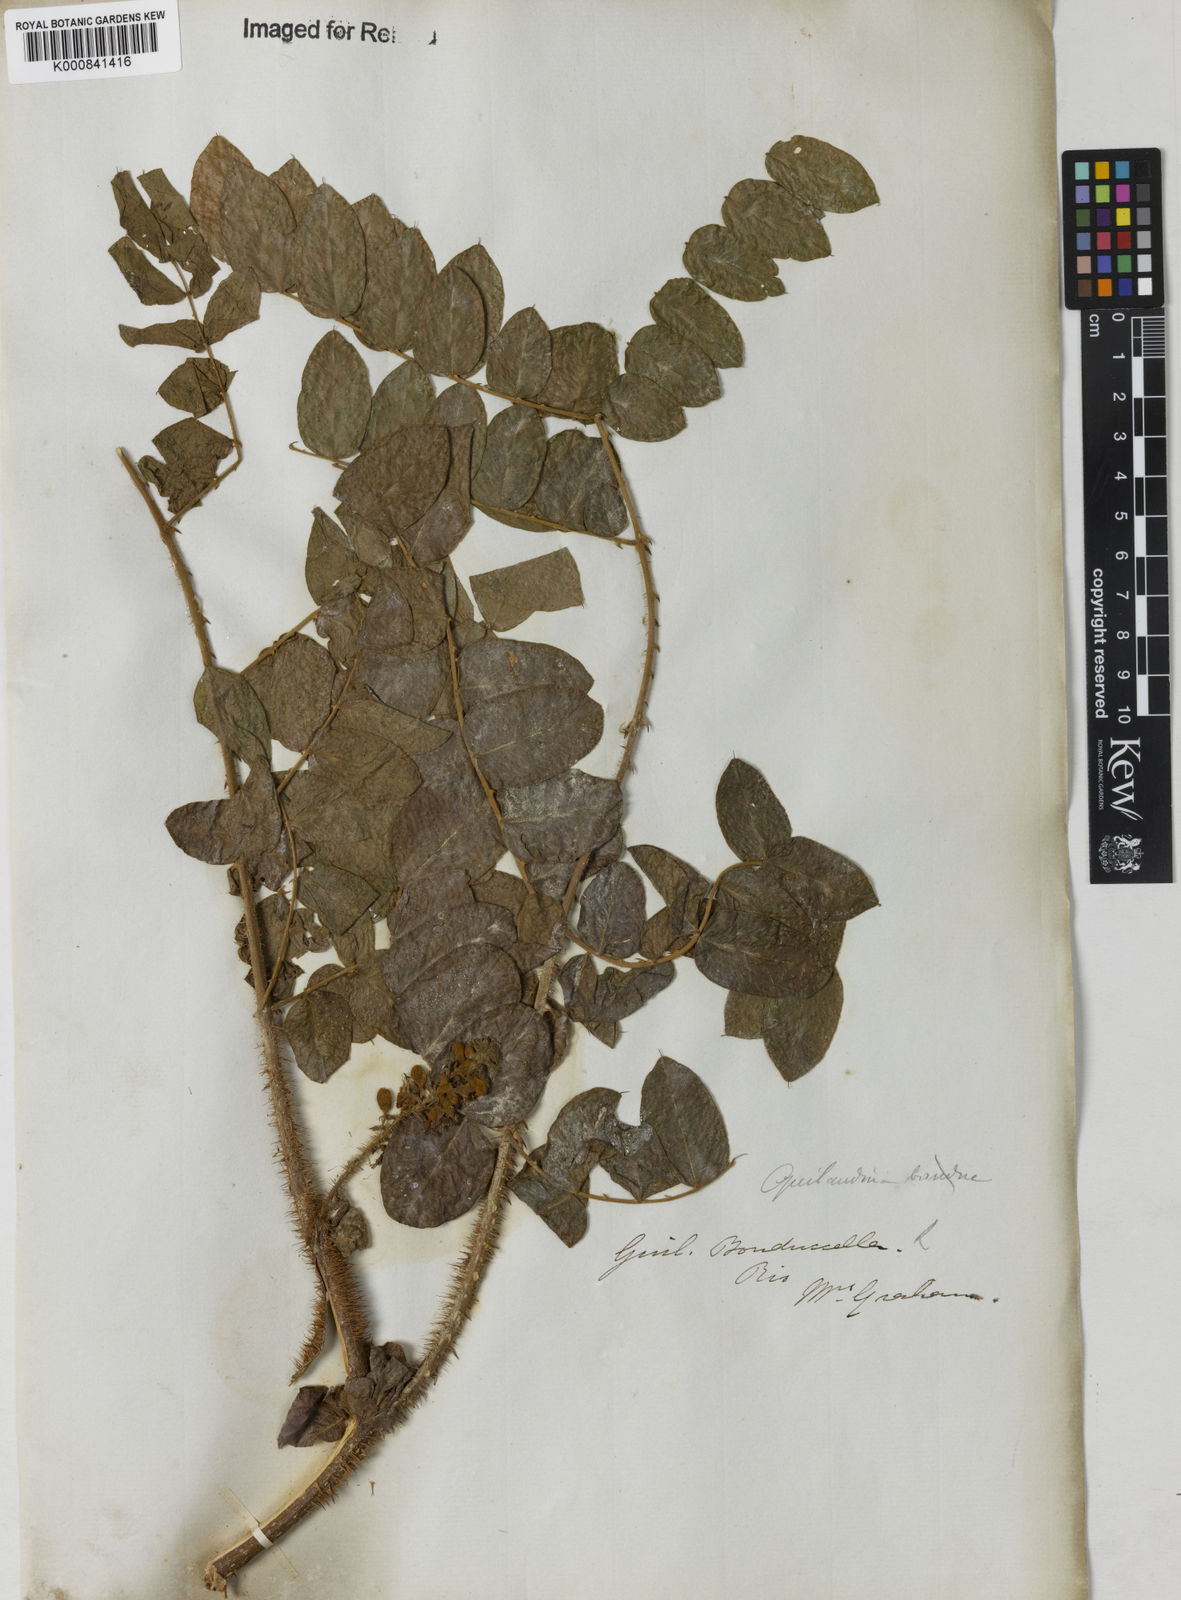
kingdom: Plantae
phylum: Tracheophyta
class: Magnoliopsida
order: Fabales
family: Fabaceae
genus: Guilandina
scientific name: Guilandina bonduc
